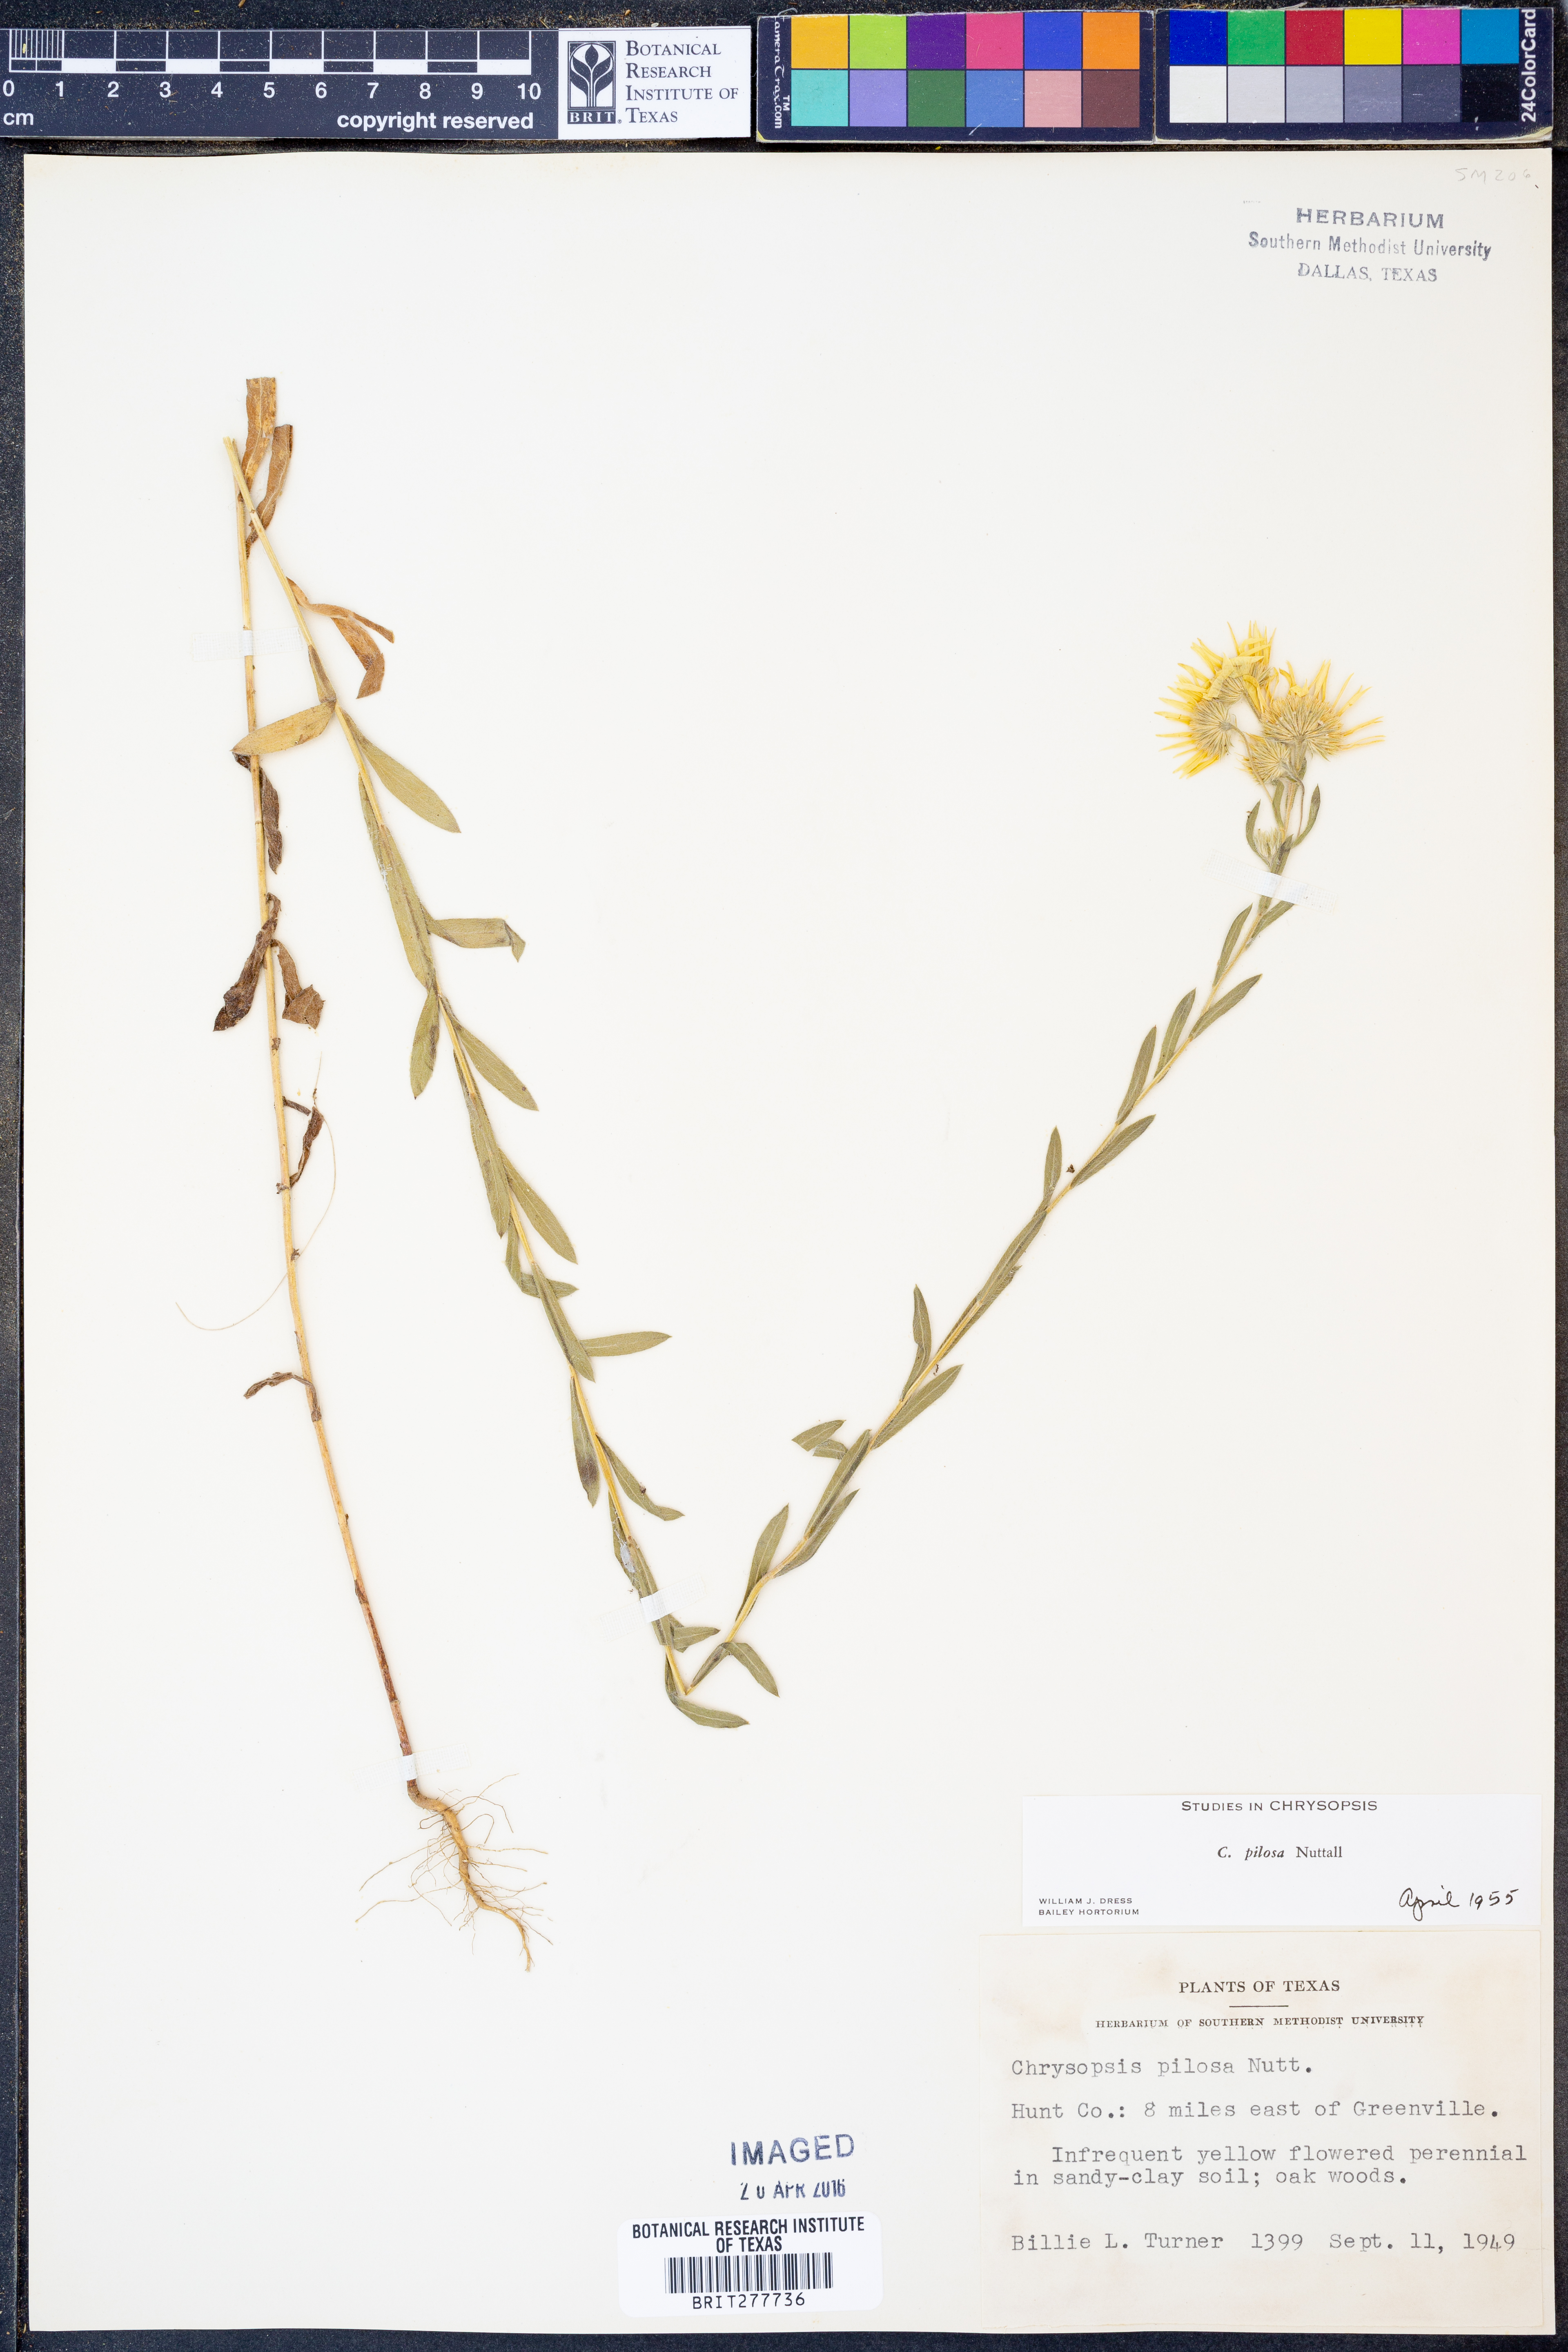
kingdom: Plantae
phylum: Tracheophyta
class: Magnoliopsida
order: Asterales
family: Asteraceae
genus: Bradburia
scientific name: Bradburia pilosa
